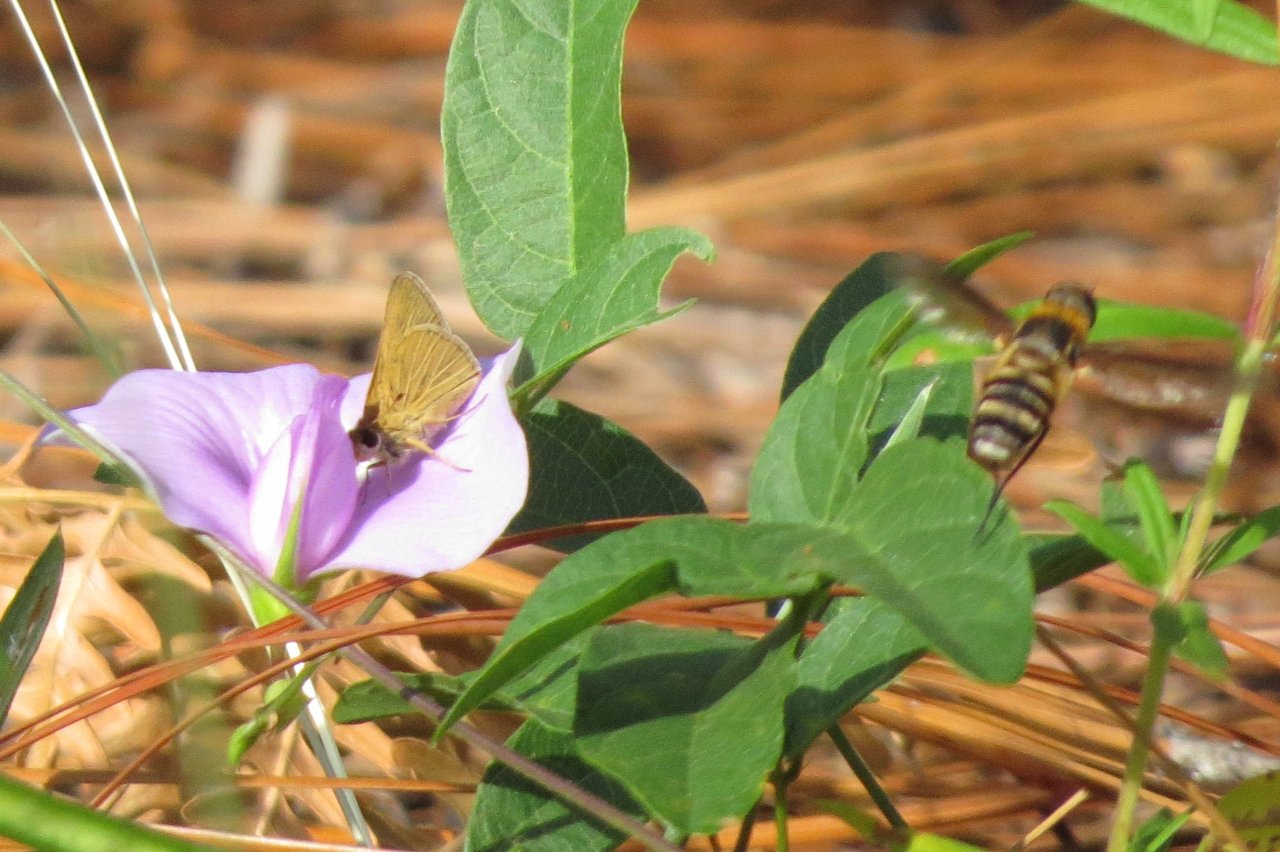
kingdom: Animalia
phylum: Arthropoda
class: Insecta
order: Lepidoptera
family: Hesperiidae
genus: Hesperia
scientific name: Hesperia meskei
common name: Meske's Skipper
